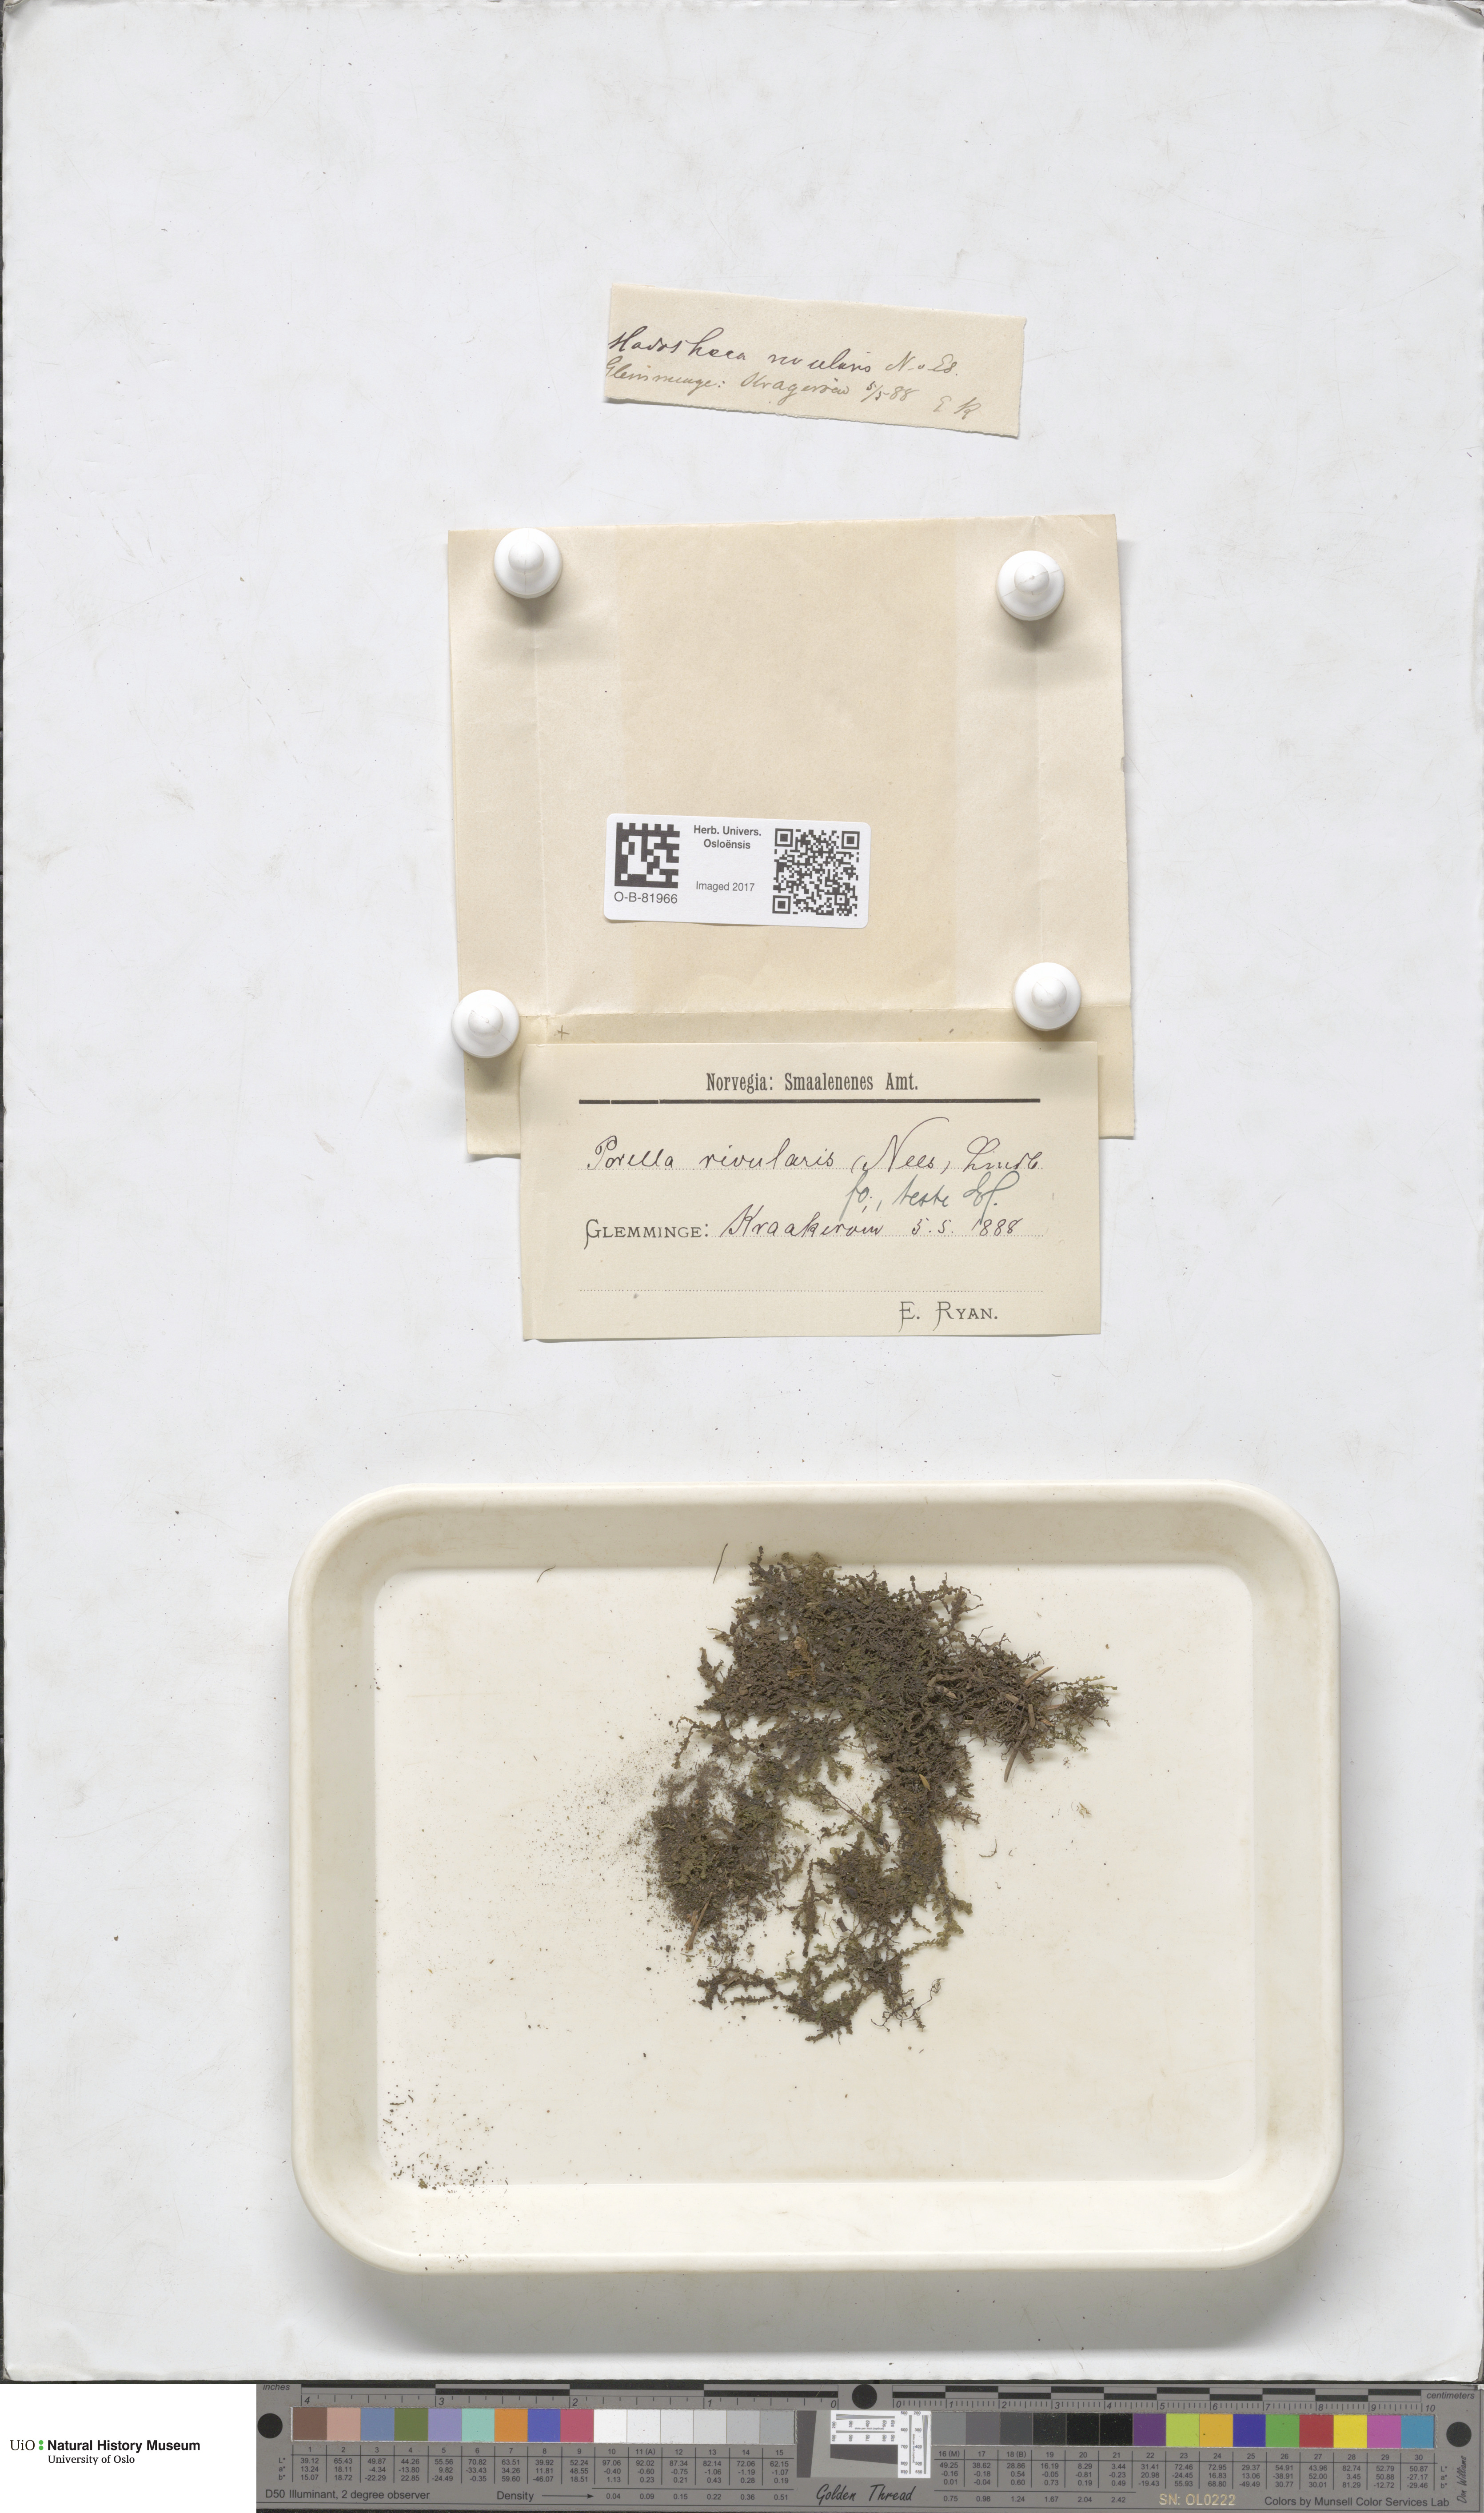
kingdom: Plantae
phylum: Marchantiophyta
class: Jungermanniopsida
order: Porellales
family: Porellaceae
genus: Porella
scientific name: Porella cordaeana
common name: Cliff scalewort
